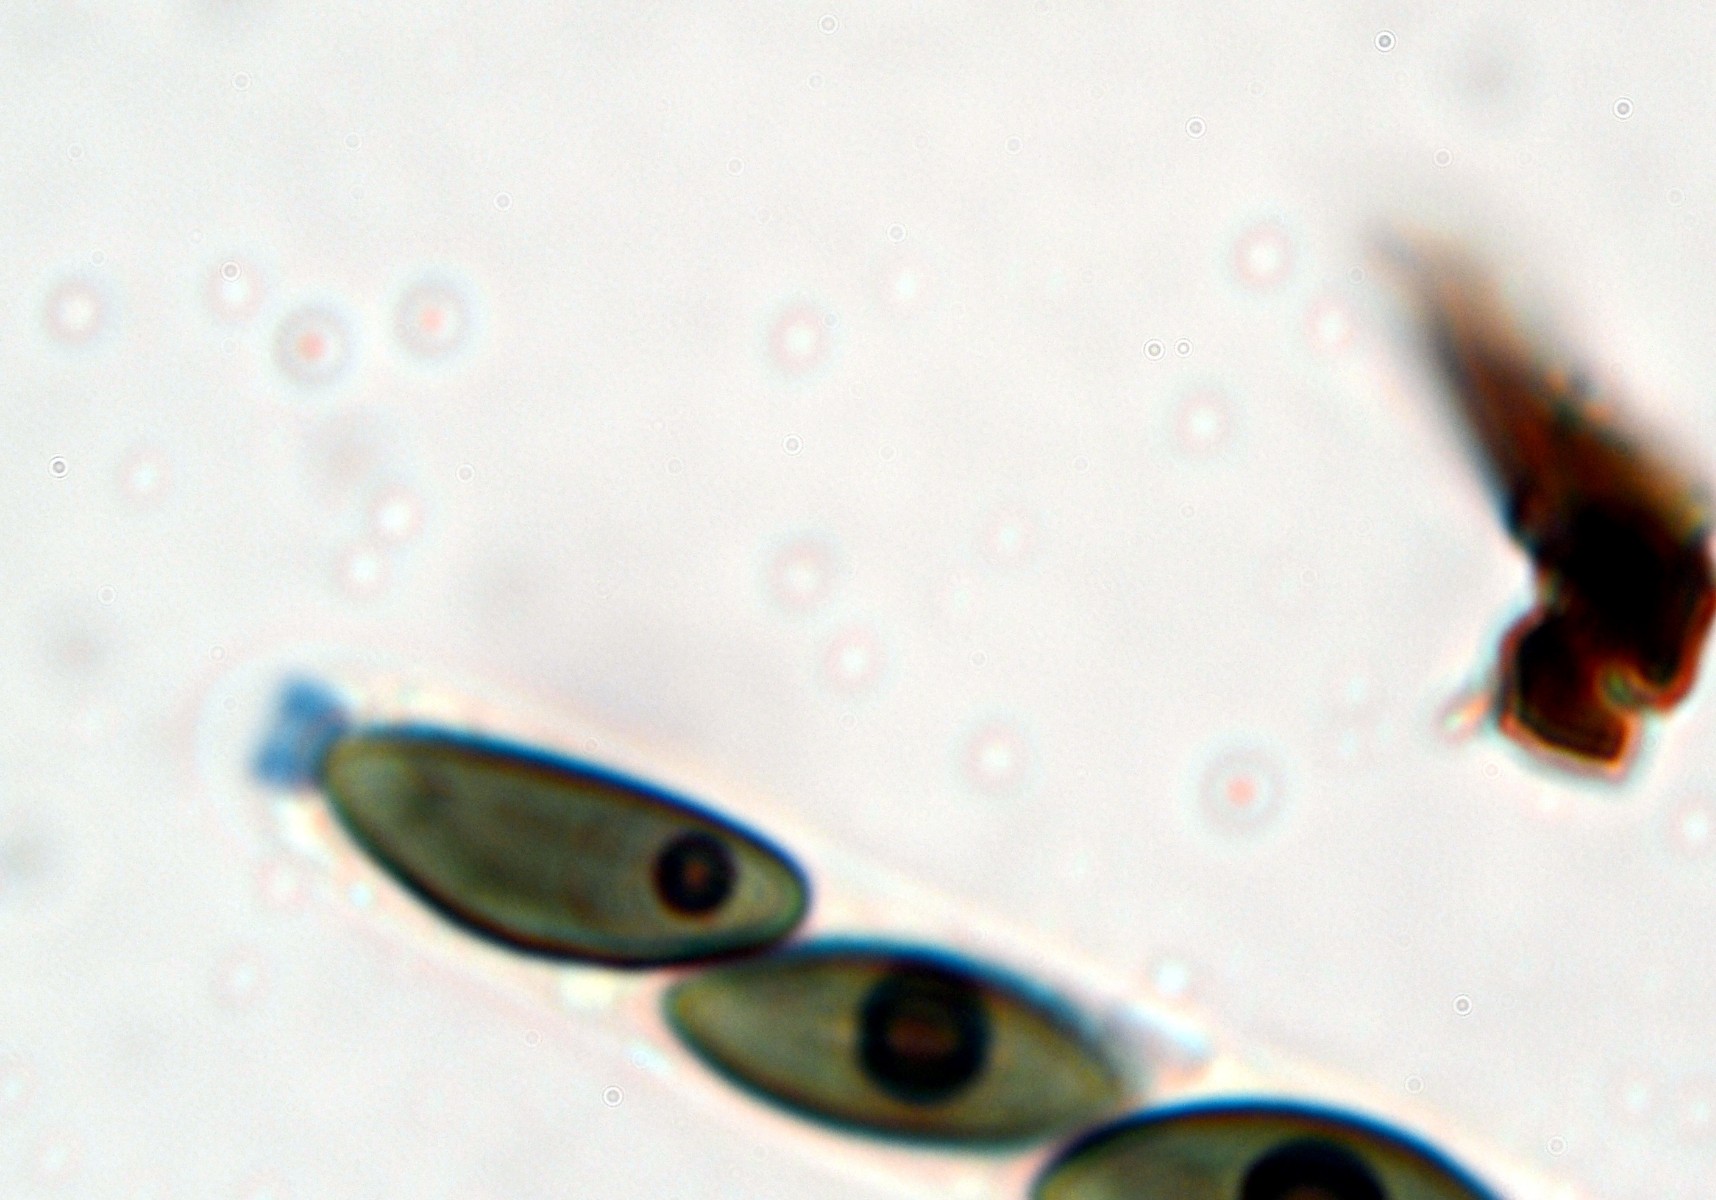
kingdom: Fungi
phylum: Ascomycota
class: Sordariomycetes
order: Xylariales
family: Hypoxylaceae
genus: Jackrogersella
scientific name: Jackrogersella cohaerens
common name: sammenflydende kulbær
